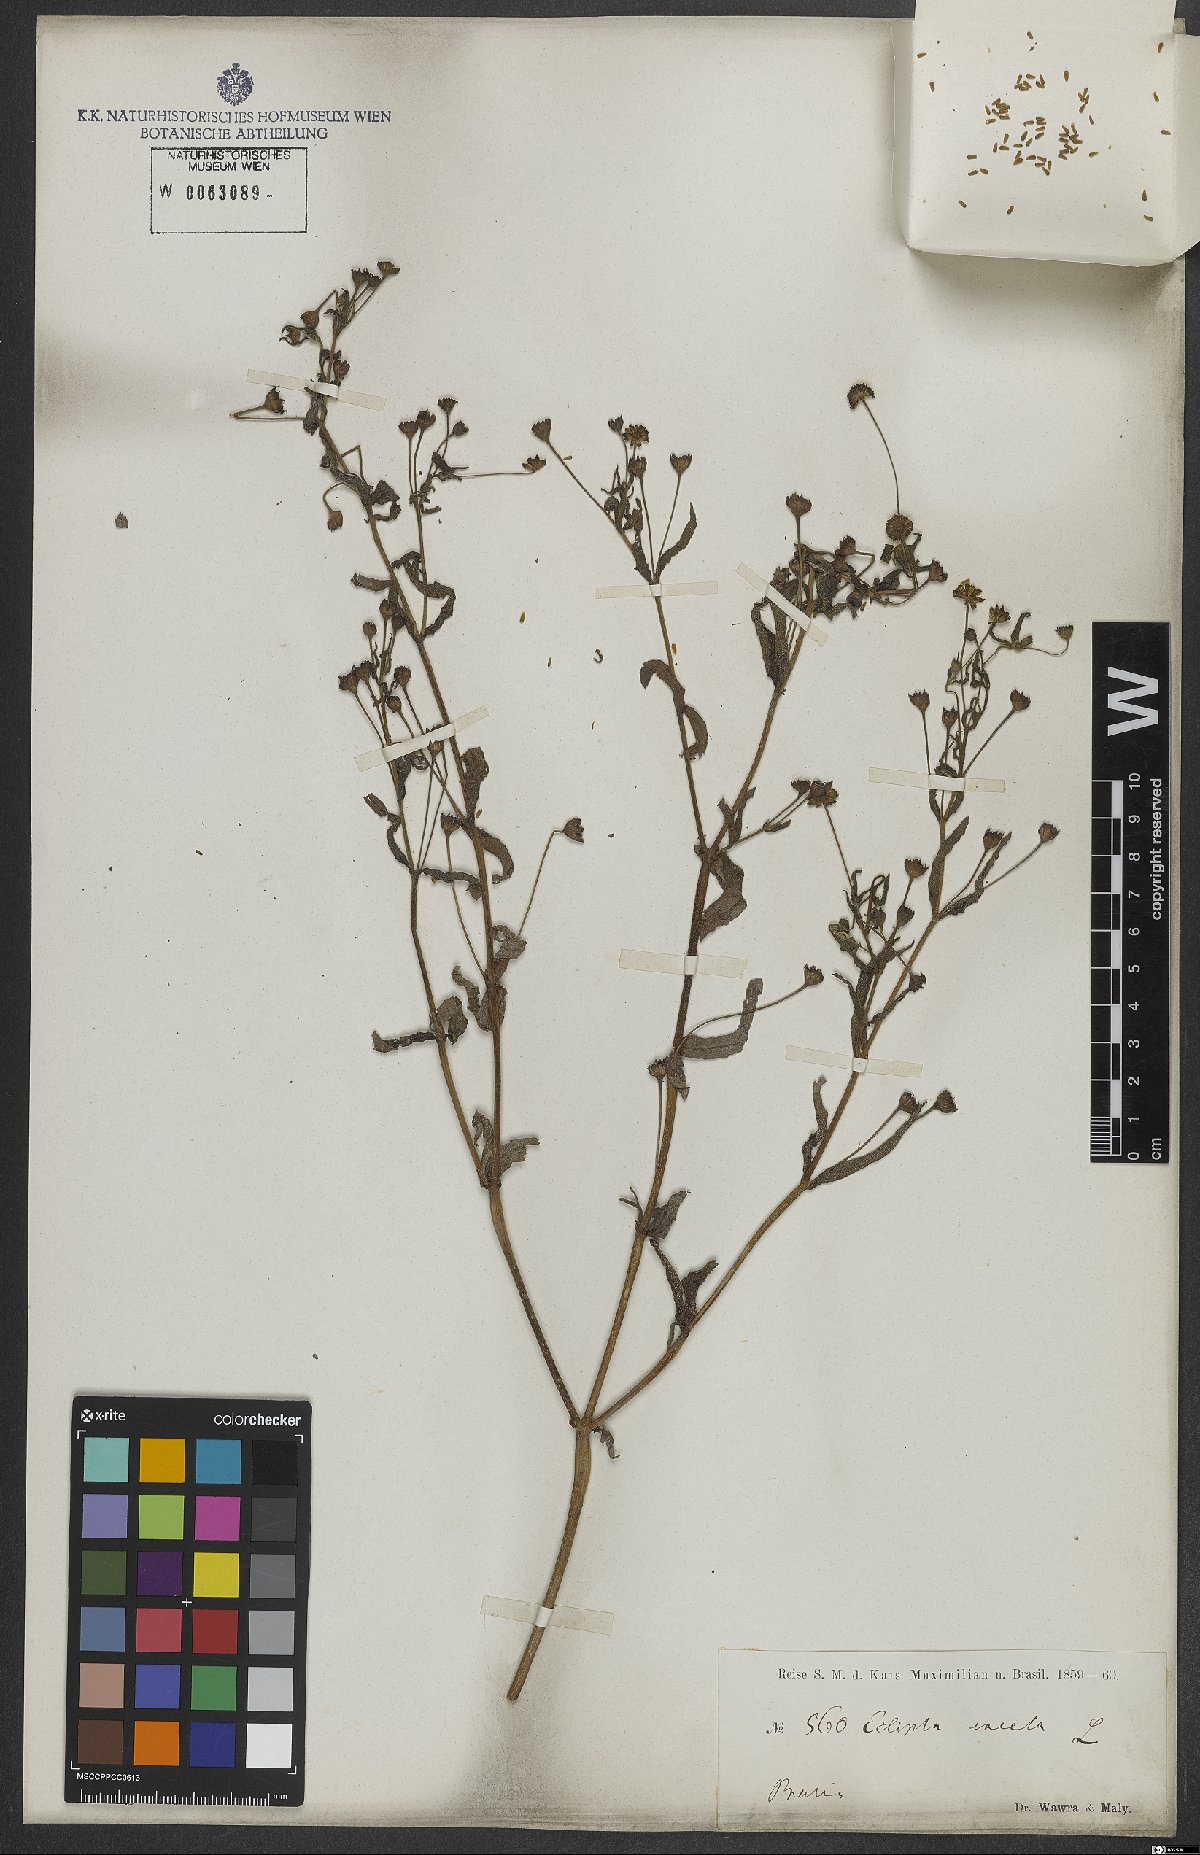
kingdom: Plantae
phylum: Tracheophyta
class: Magnoliopsida
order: Asterales
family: Asteraceae
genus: Eclipta
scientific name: Eclipta alba
